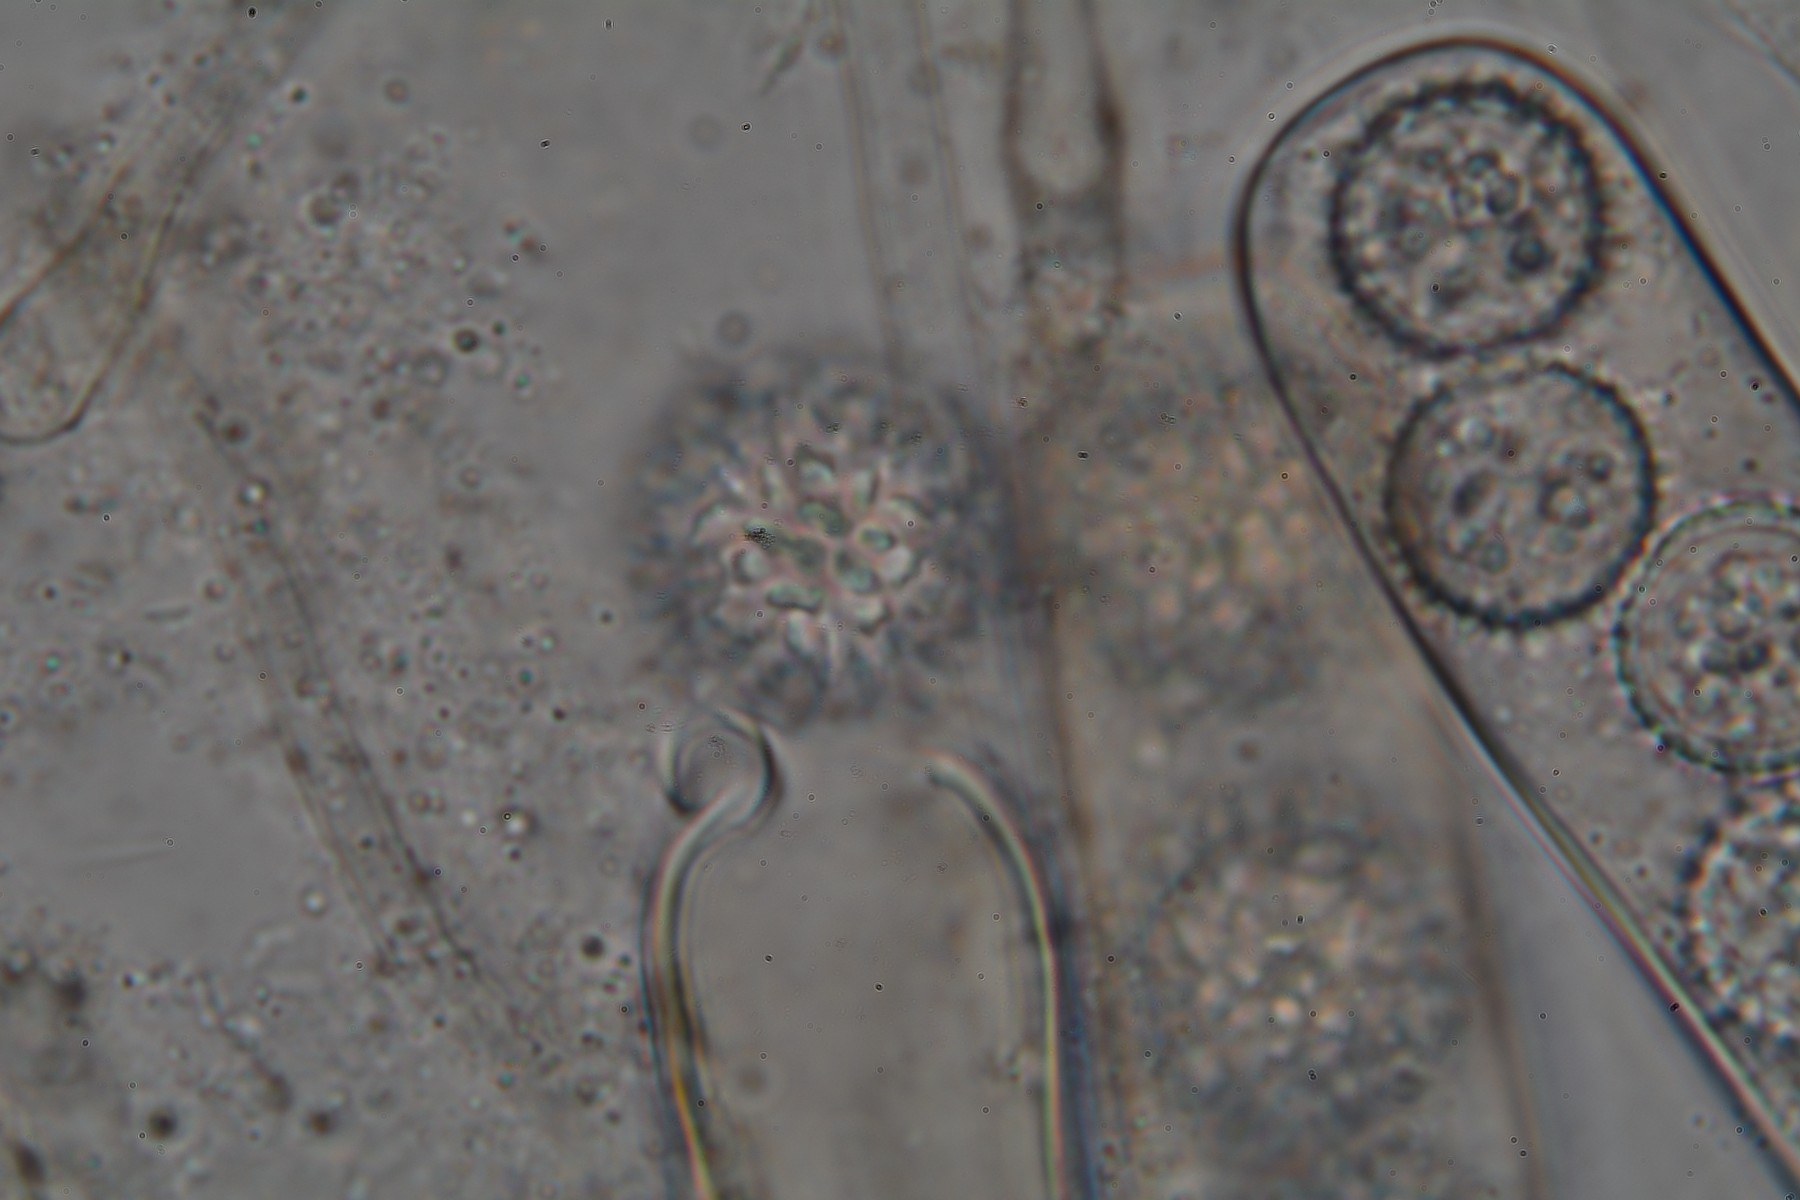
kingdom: Fungi
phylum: Ascomycota
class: Pezizomycetes
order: Pezizales
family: Pyronemataceae
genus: Plicaria
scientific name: Plicaria carbonaria
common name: pigsporet bålbæger
